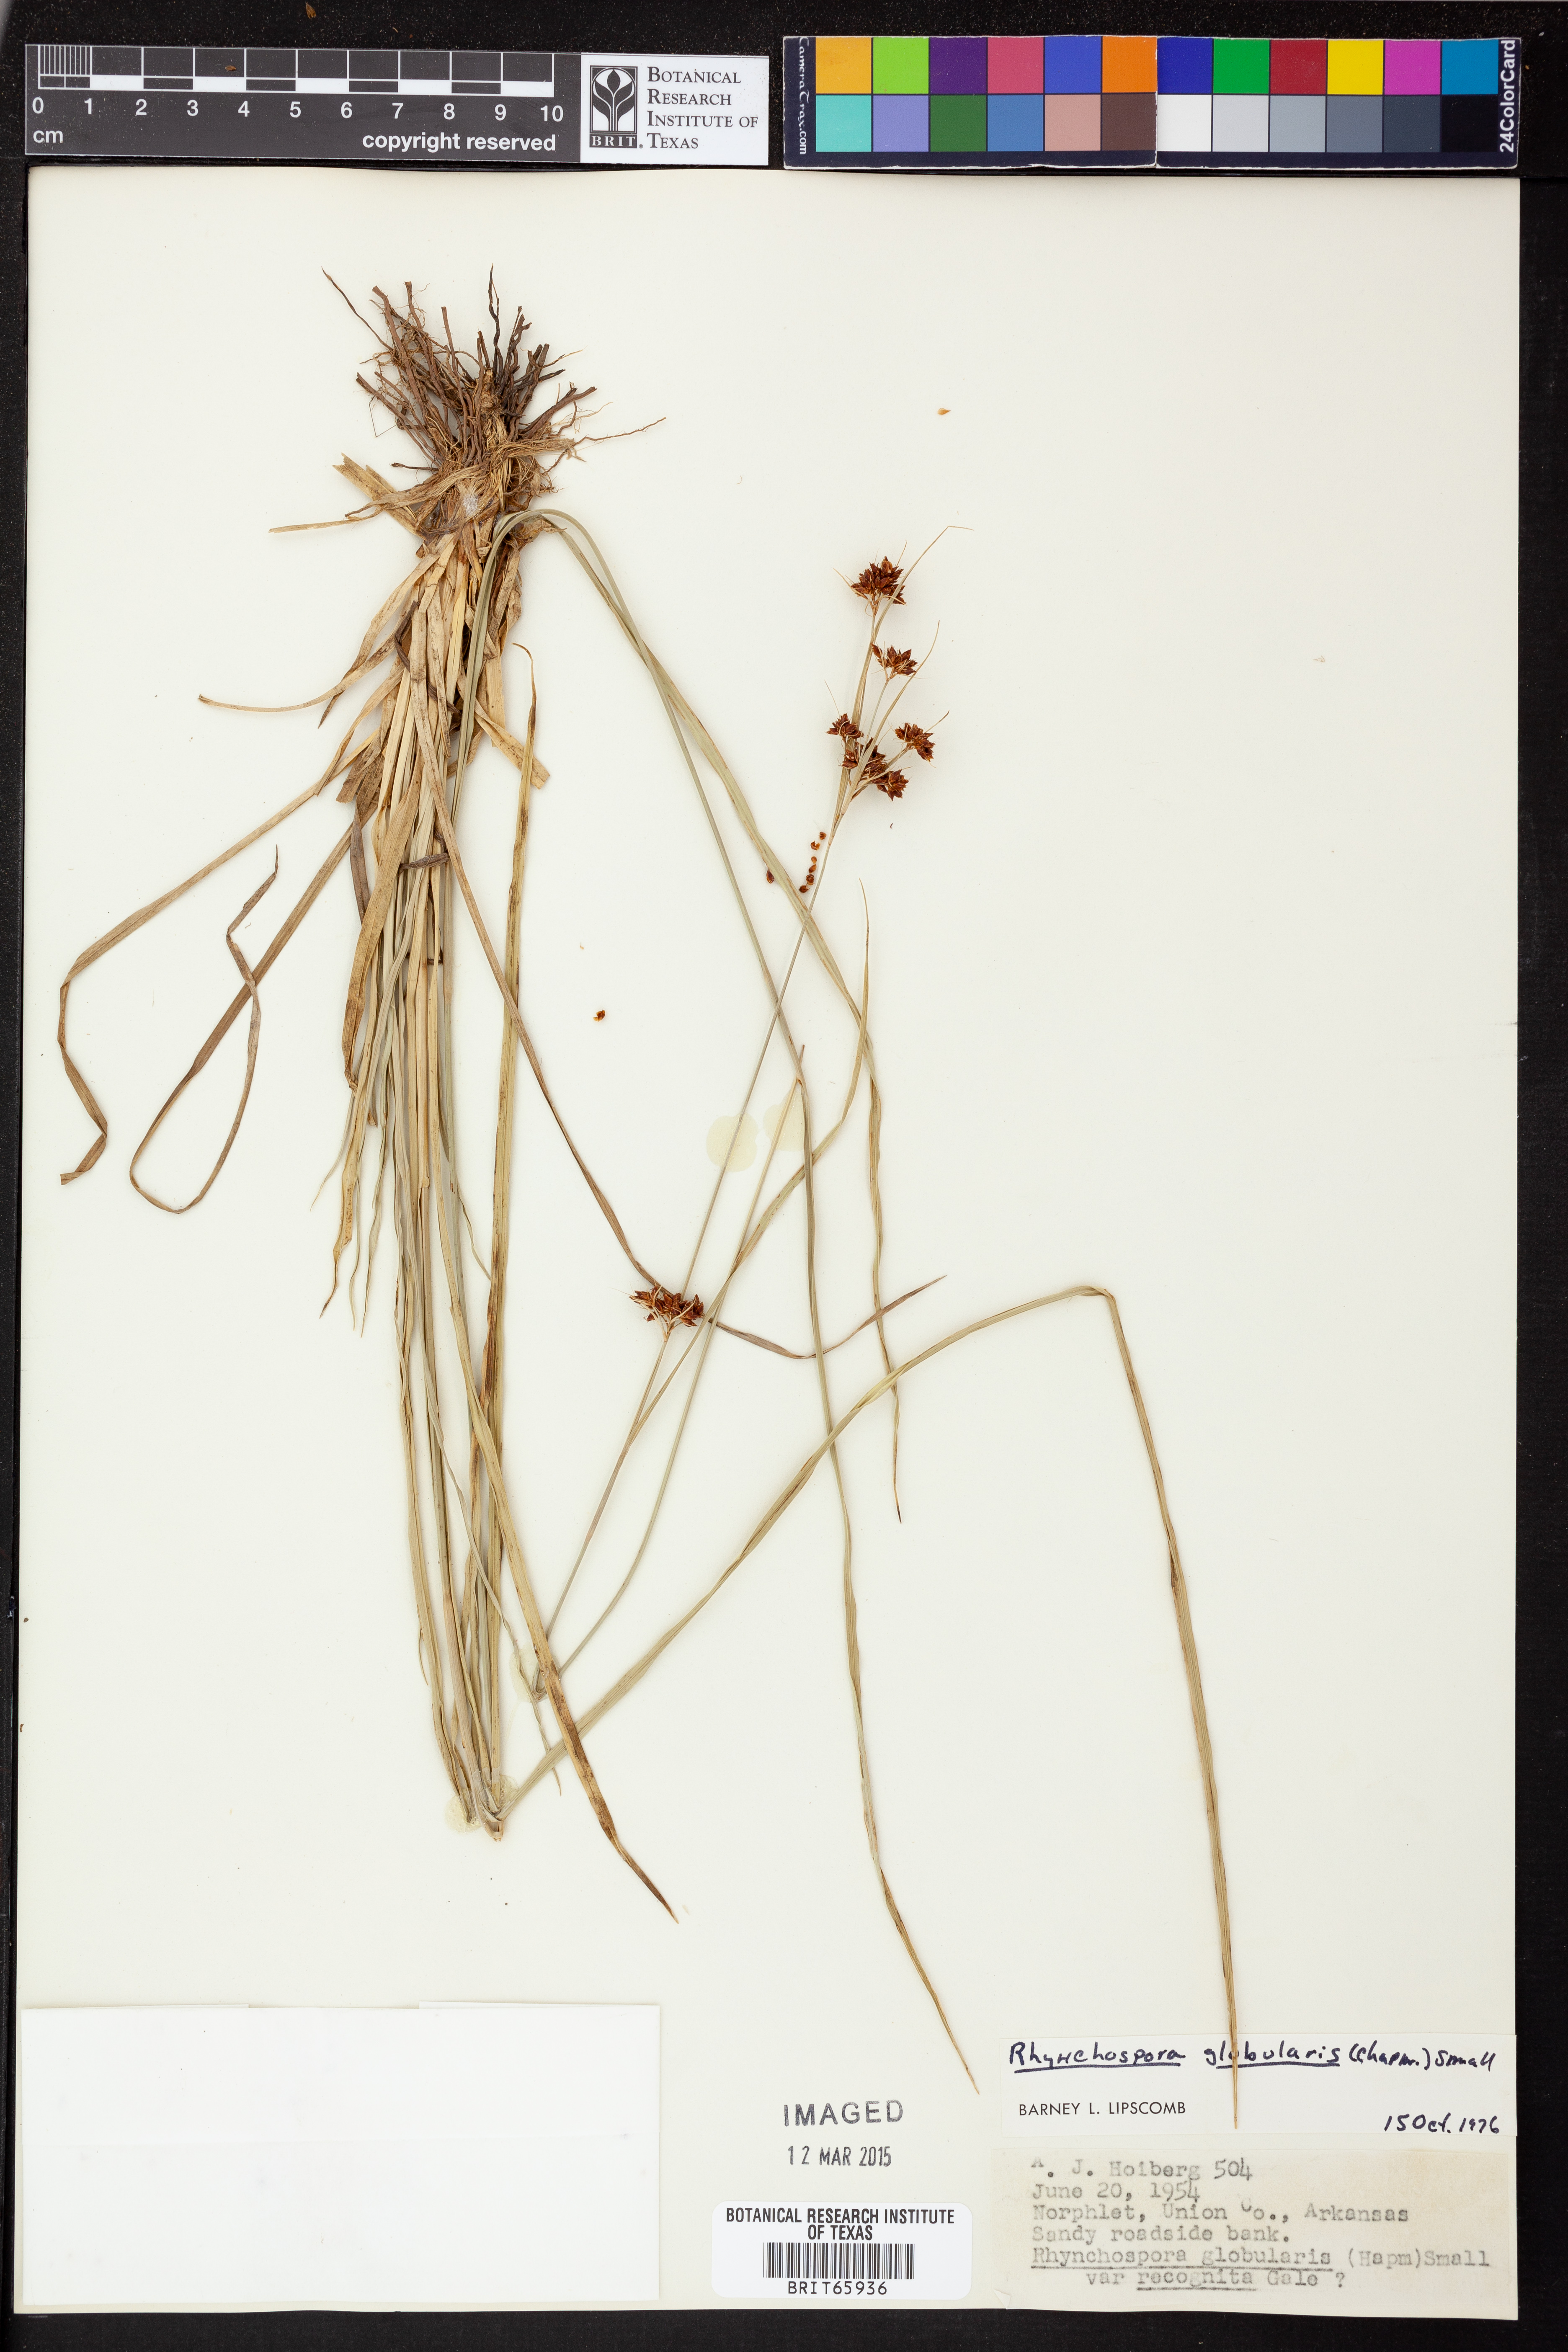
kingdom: Plantae
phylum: Tracheophyta
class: Liliopsida
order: Poales
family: Cyperaceae
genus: Rhynchospora
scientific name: Rhynchospora globularis
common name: Globe beaksedge
